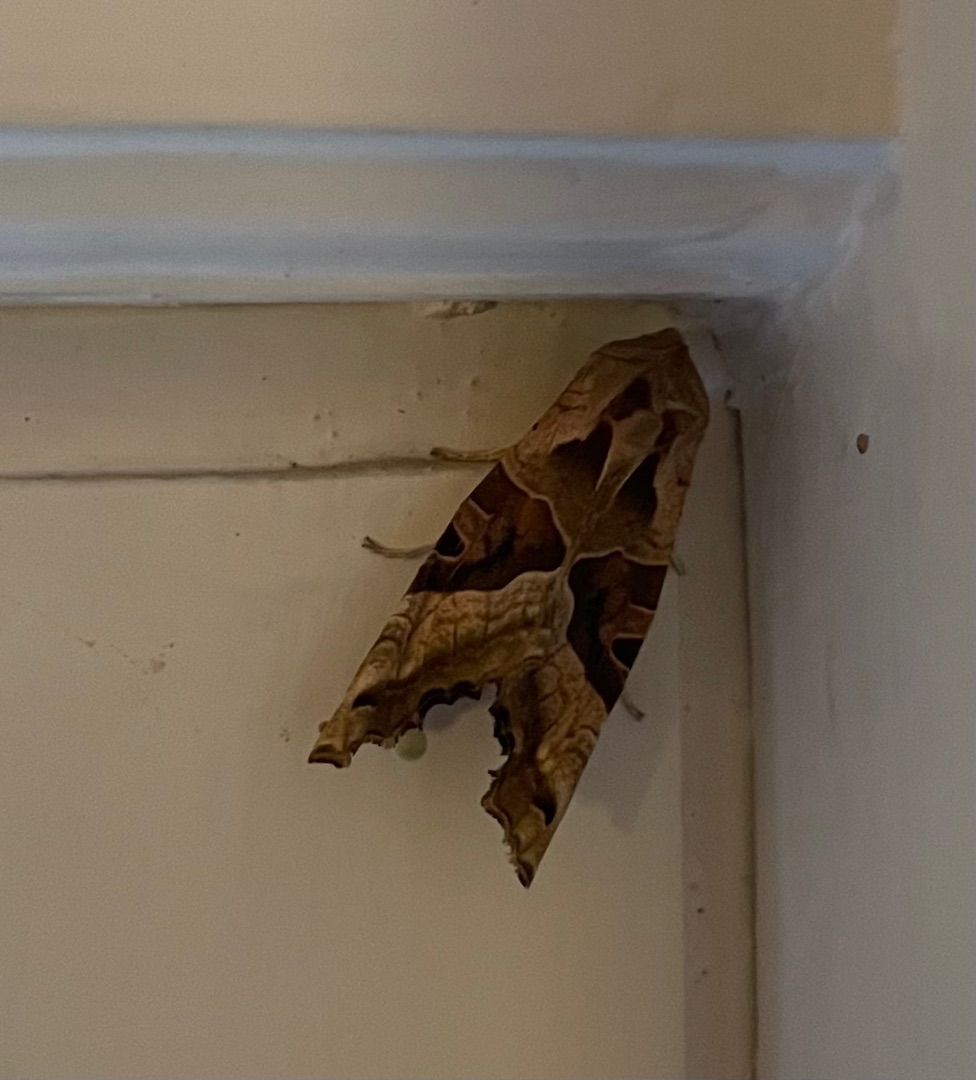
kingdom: Animalia
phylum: Arthropoda
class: Insecta
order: Lepidoptera
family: Noctuidae
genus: Phlogophora
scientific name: Phlogophora meticulosa
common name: Agatugle
